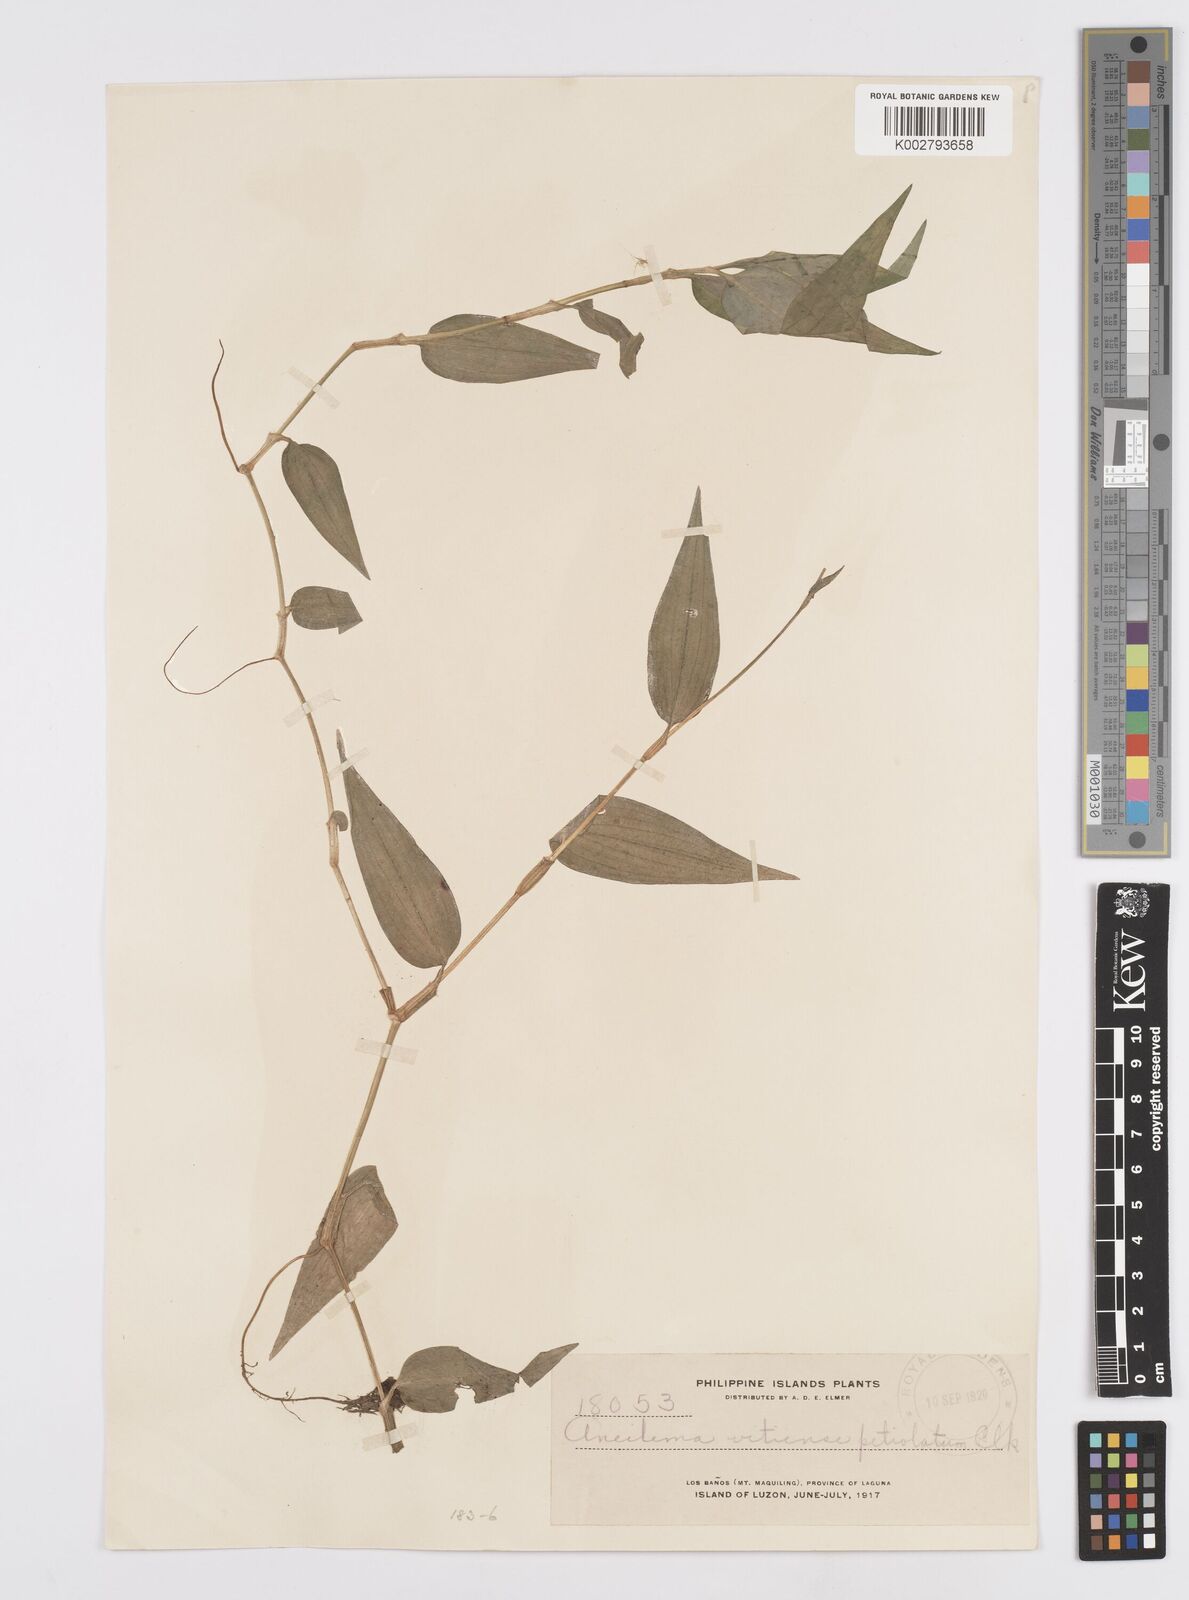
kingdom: Plantae
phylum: Tracheophyta
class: Liliopsida
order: Commelinales
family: Commelinaceae
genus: Murdannia
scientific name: Murdannia
